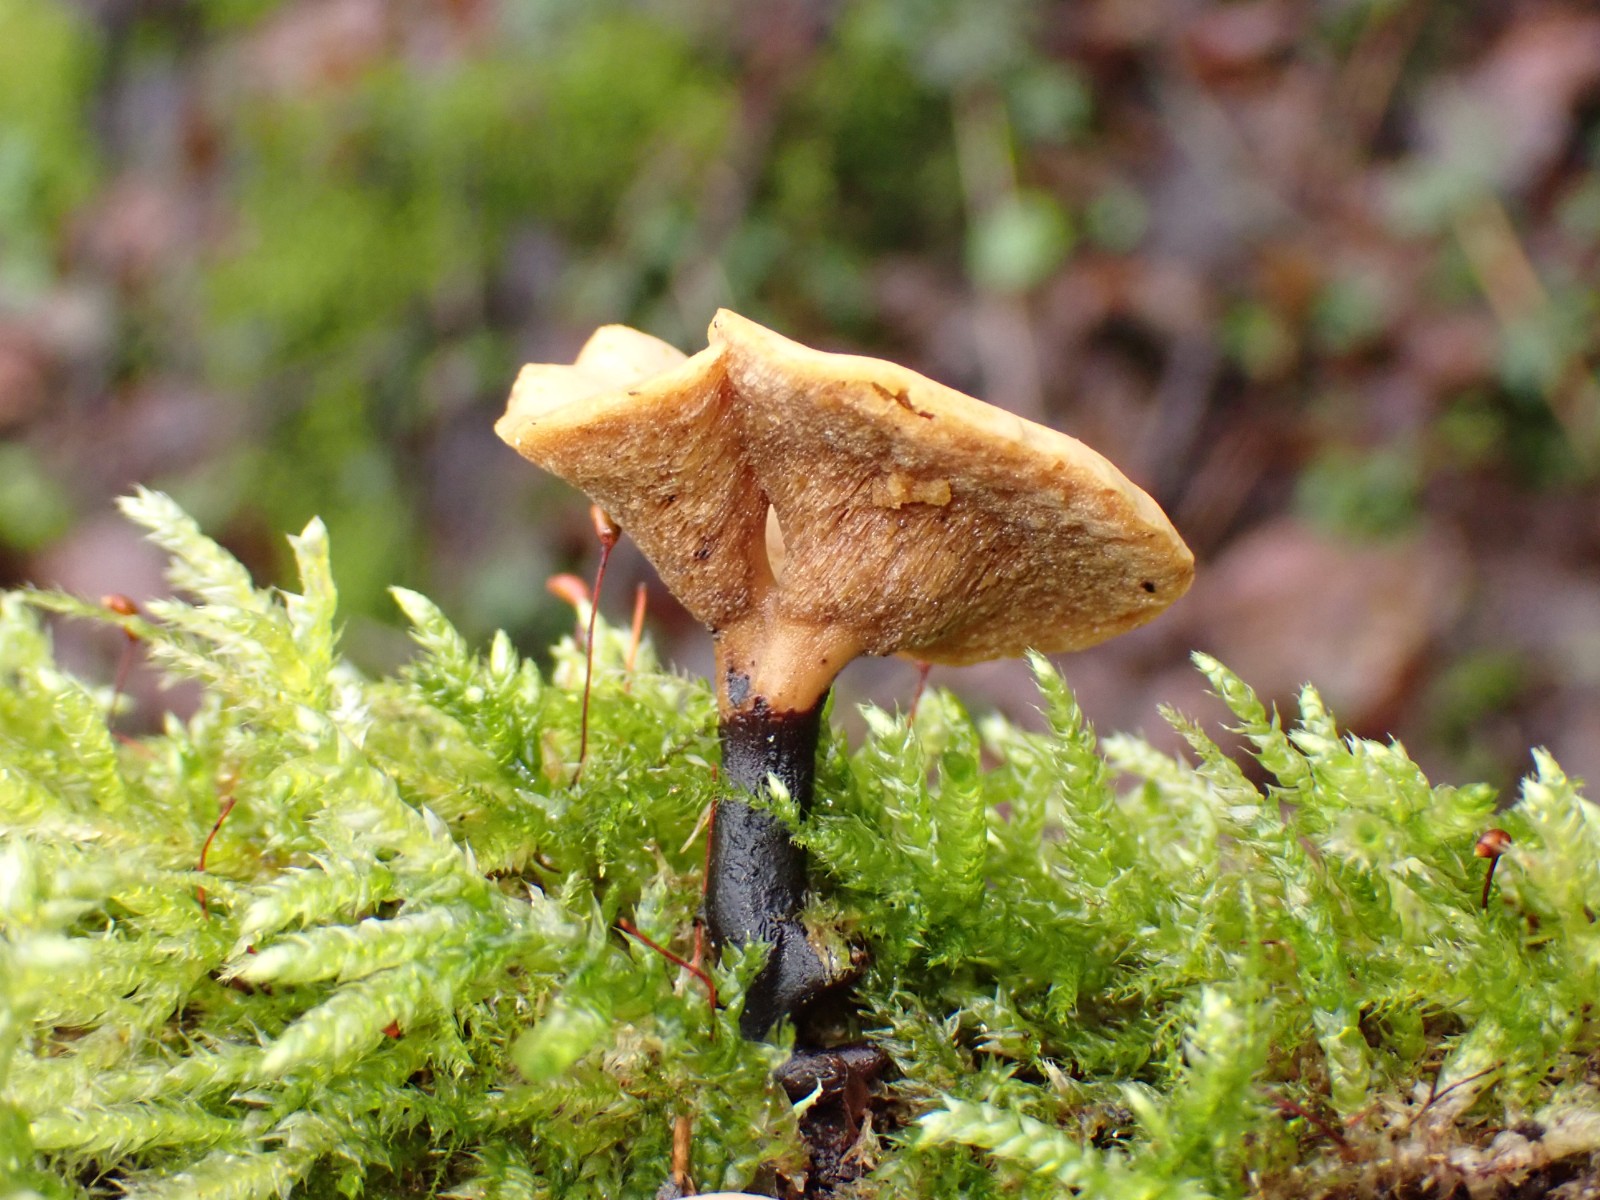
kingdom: Fungi
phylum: Basidiomycota
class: Agaricomycetes
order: Polyporales
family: Polyporaceae
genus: Cerioporus
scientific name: Cerioporus varius
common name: foranderlig stilkporesvamp
